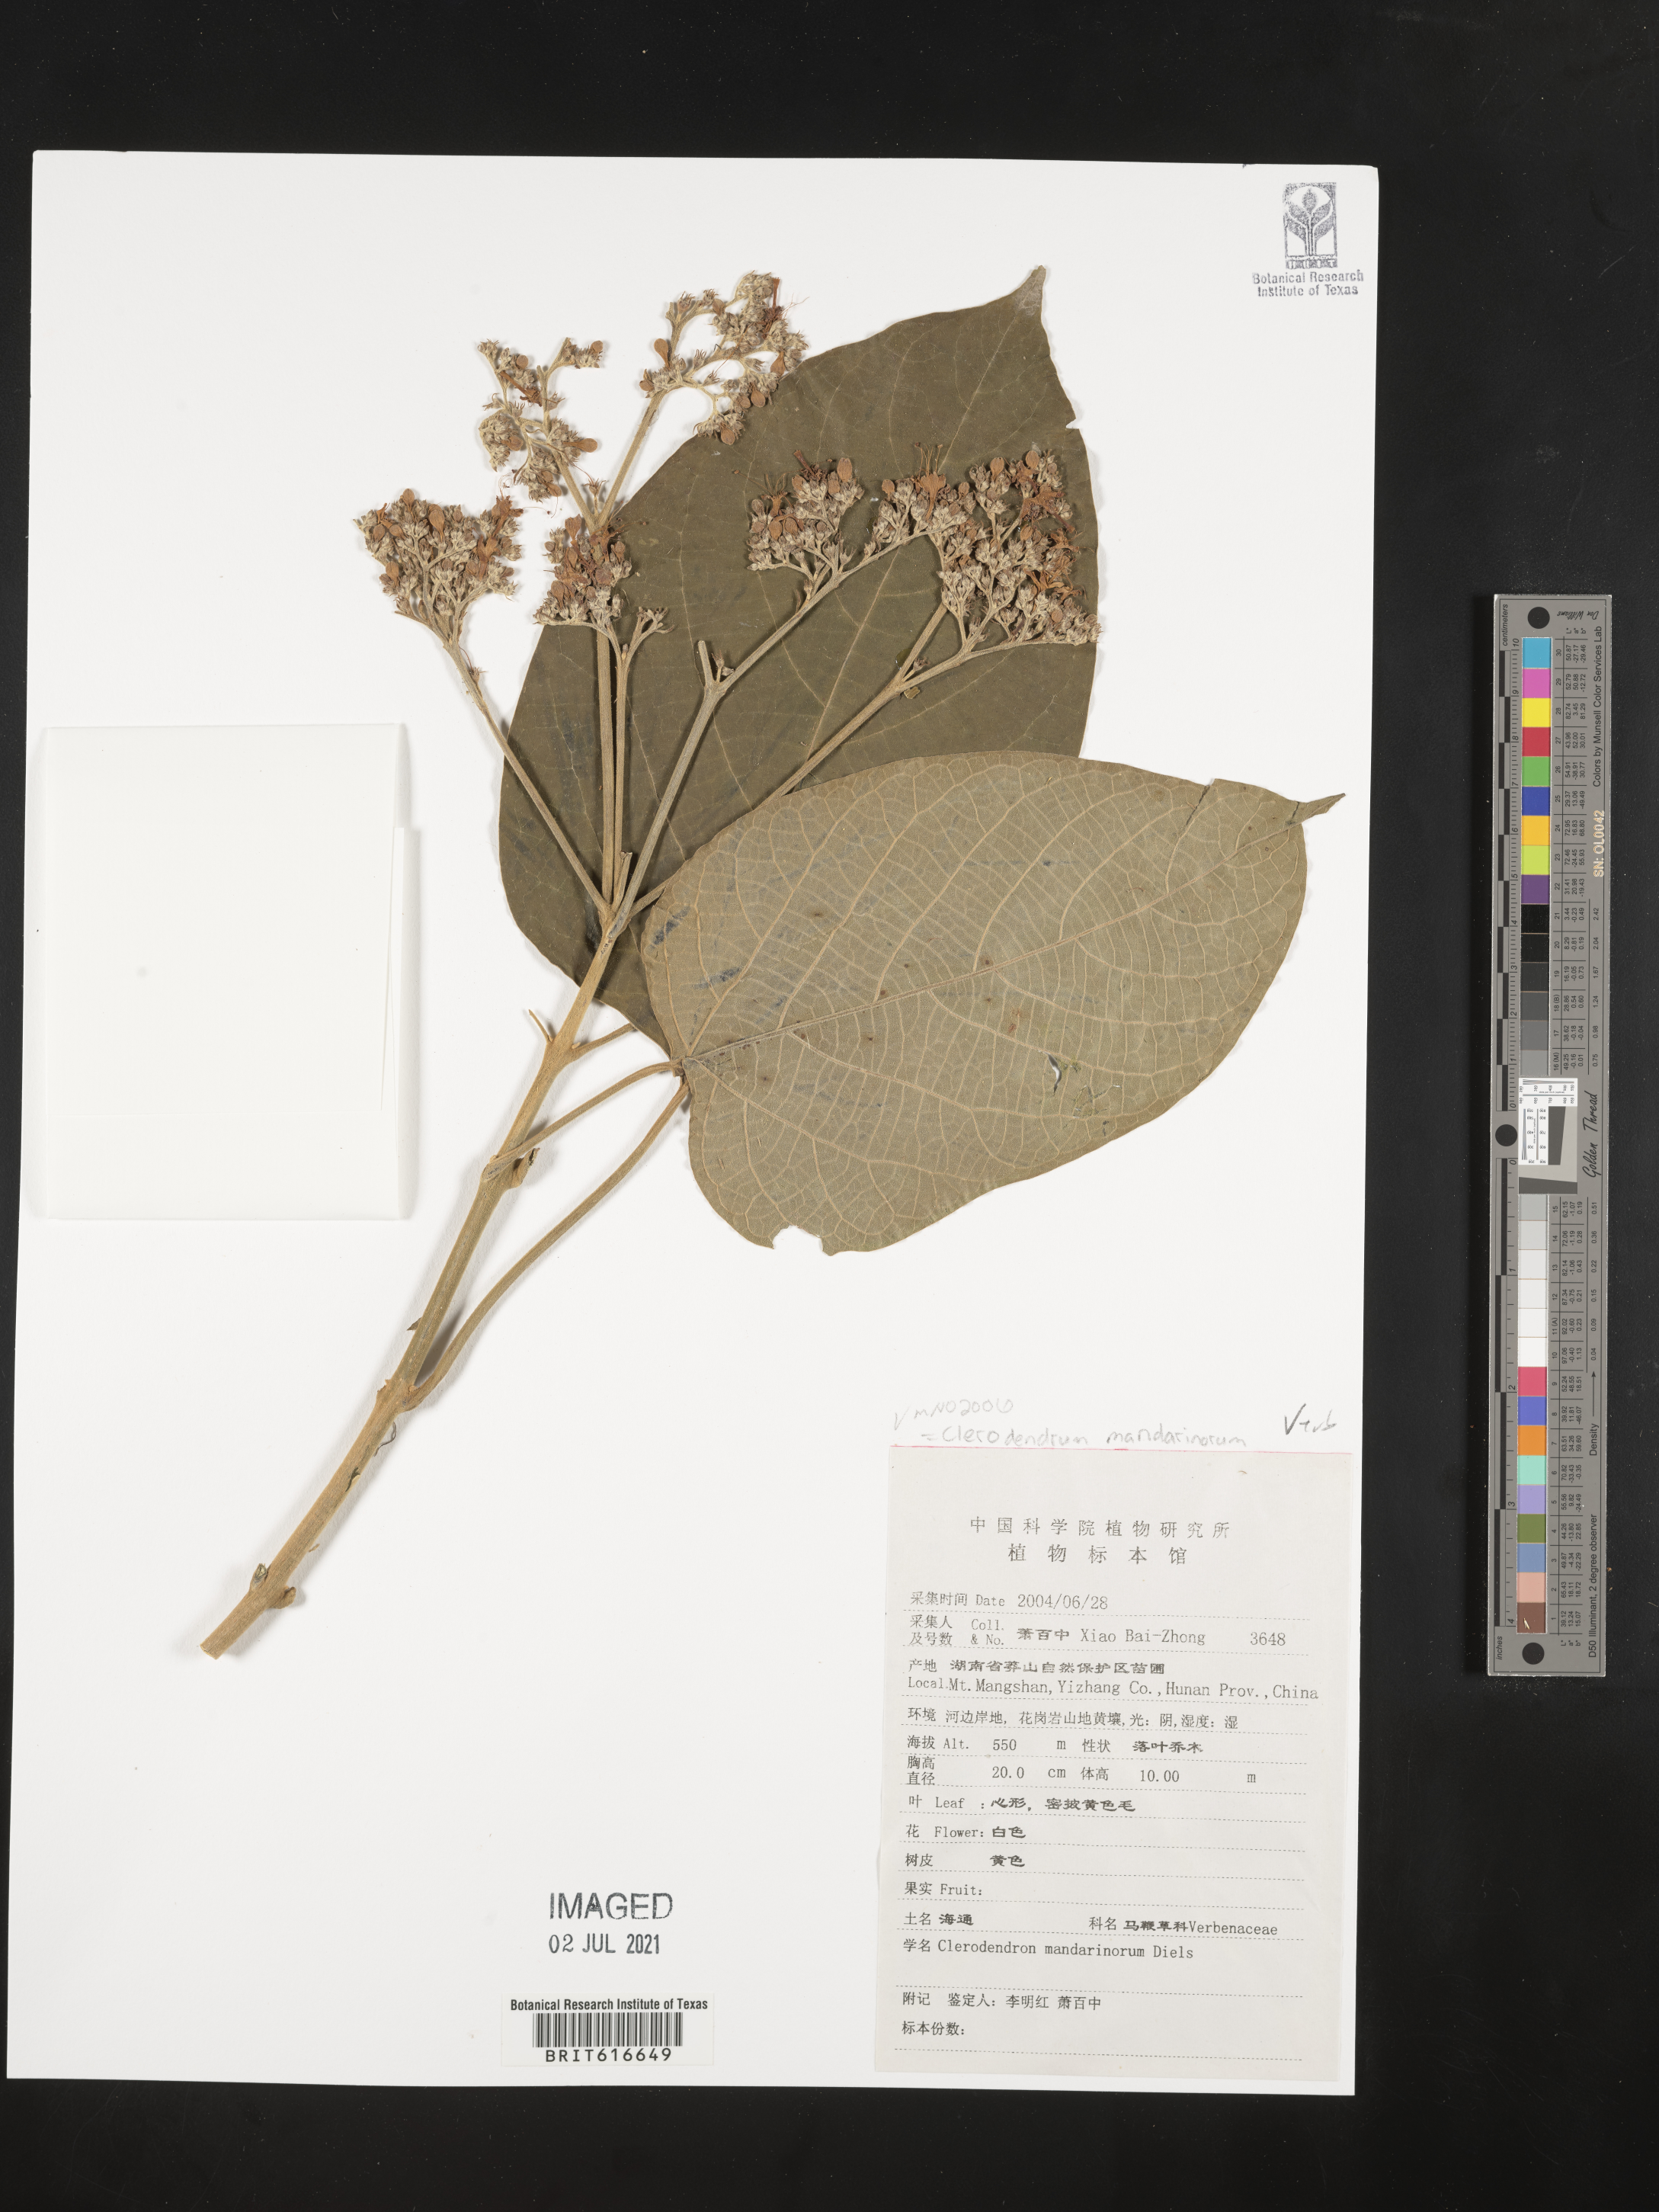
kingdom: Plantae
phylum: Tracheophyta
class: Magnoliopsida
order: Lamiales
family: Lamiaceae
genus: Clerodendrum
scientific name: Clerodendrum mandarinorum
